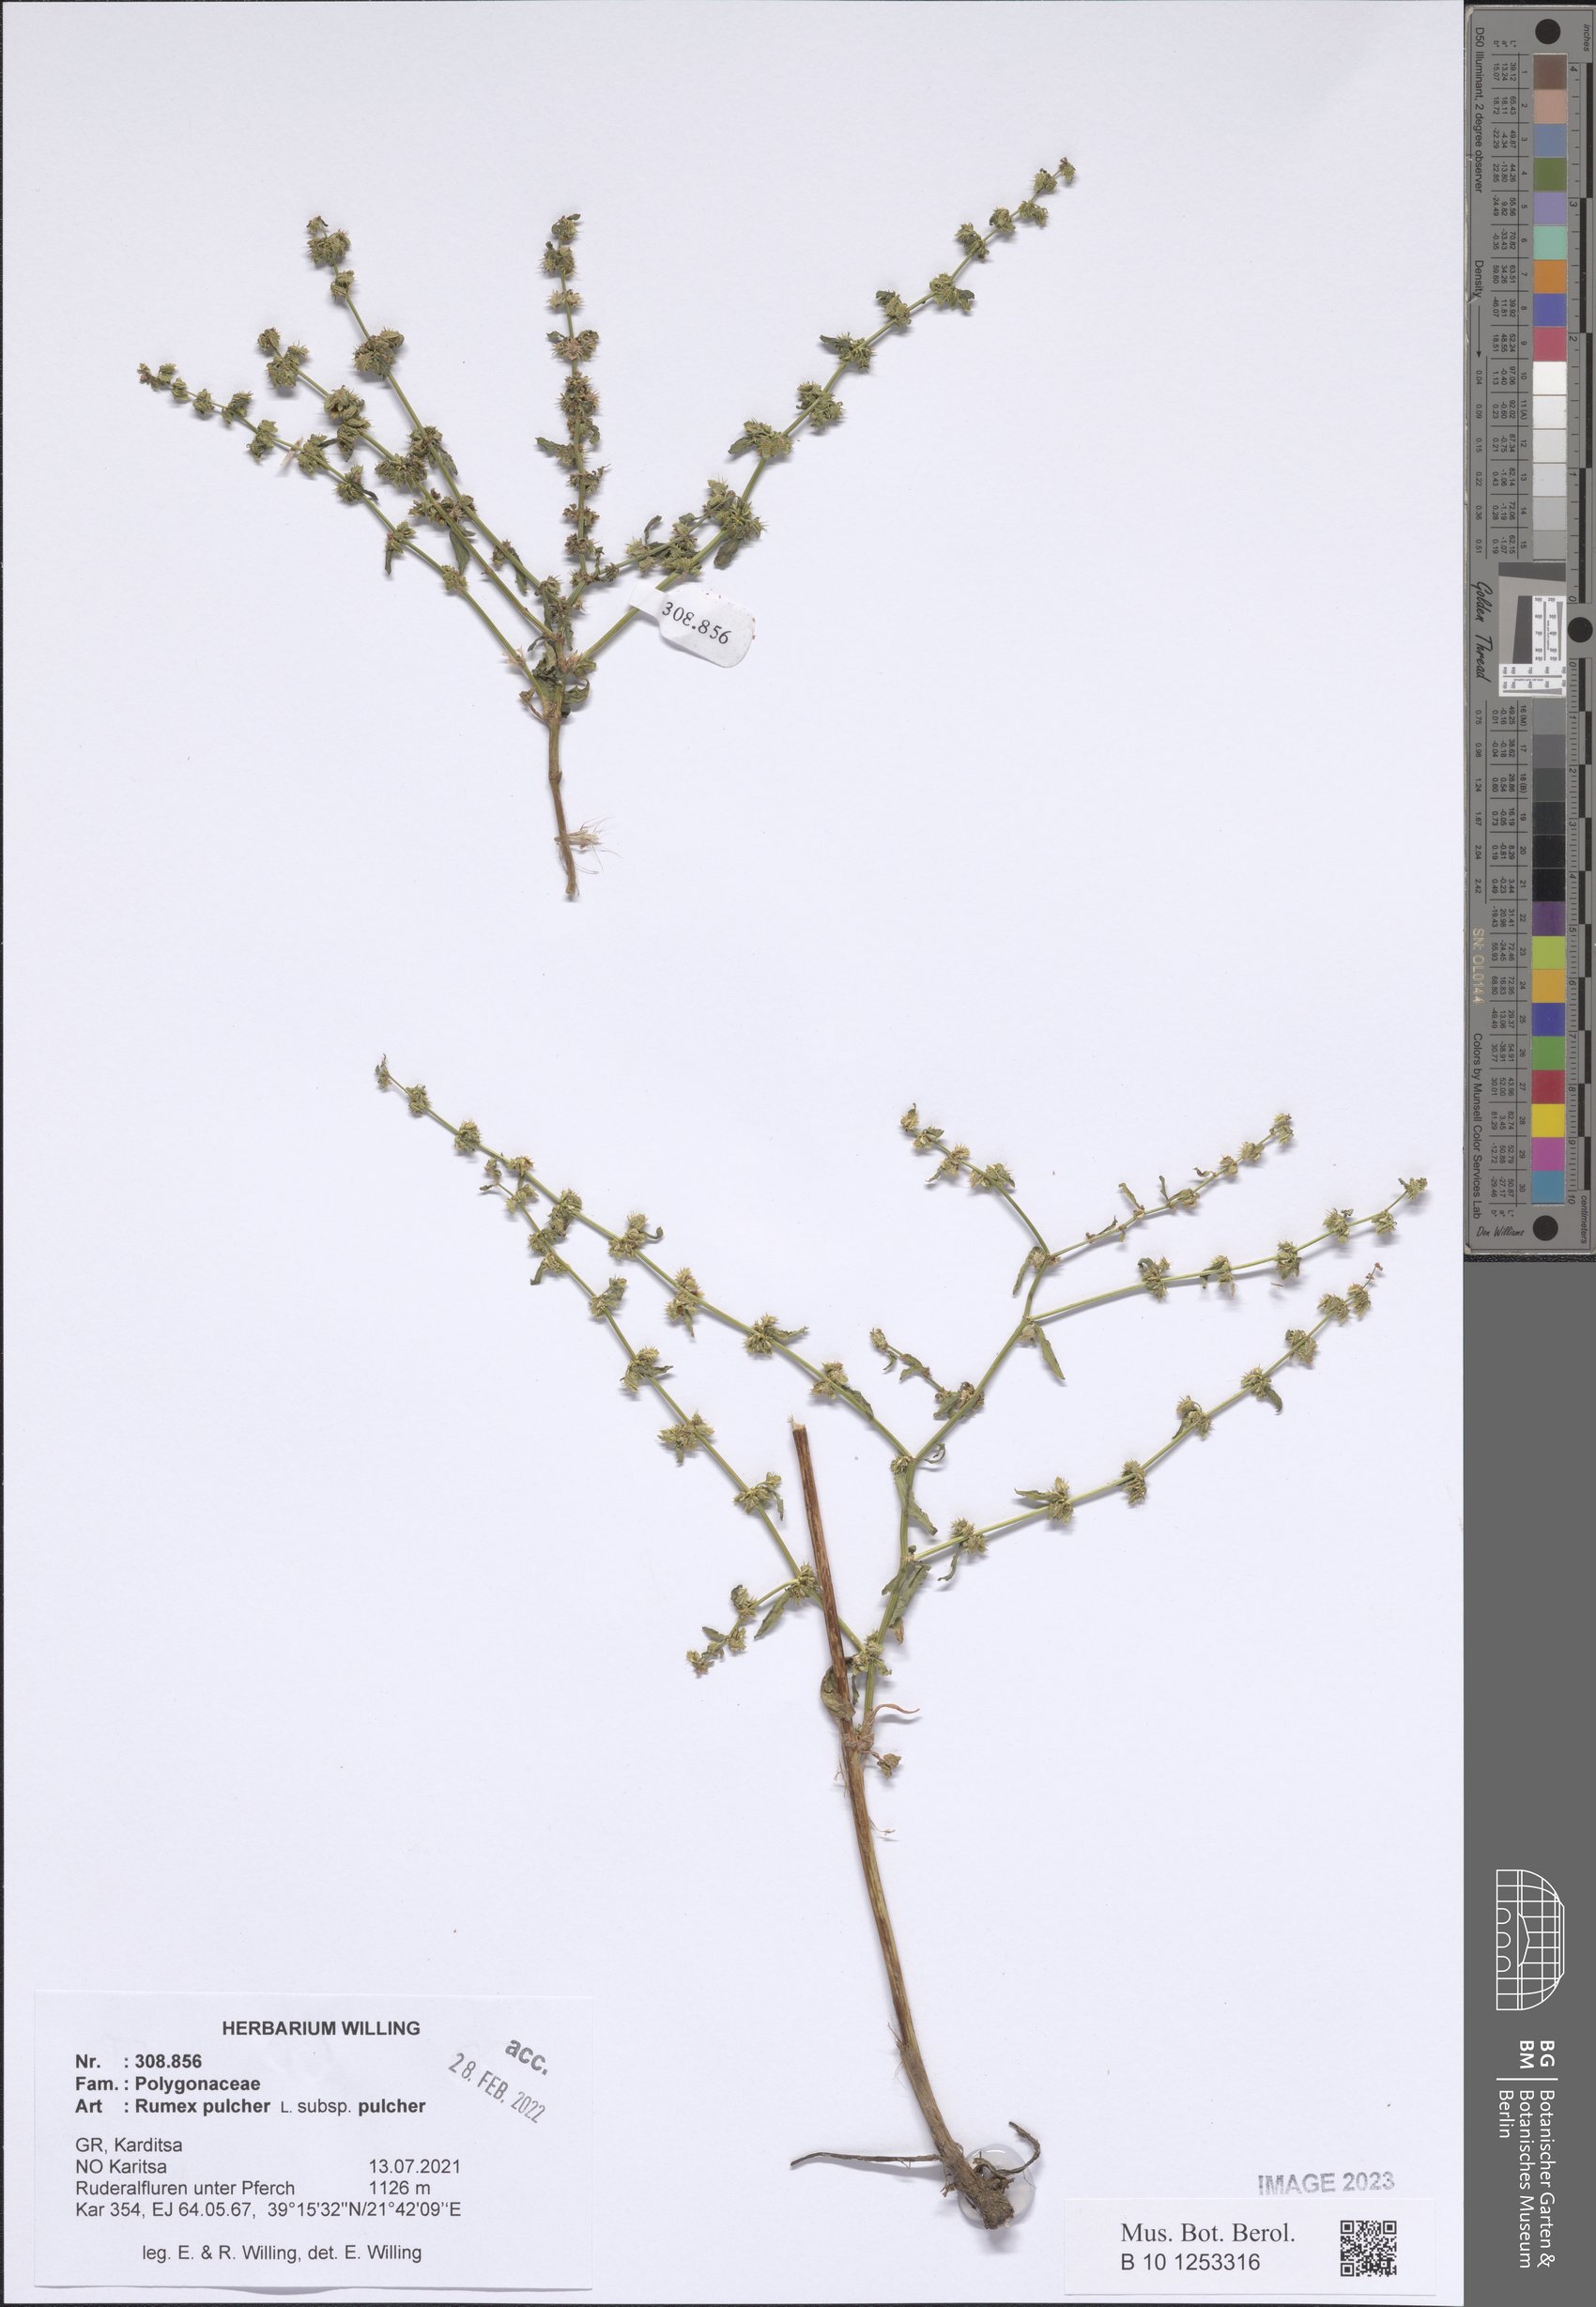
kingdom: Plantae
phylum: Tracheophyta
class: Magnoliopsida
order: Caryophyllales
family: Polygonaceae
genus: Rumex
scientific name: Rumex pulcher
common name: Fiddle dock
